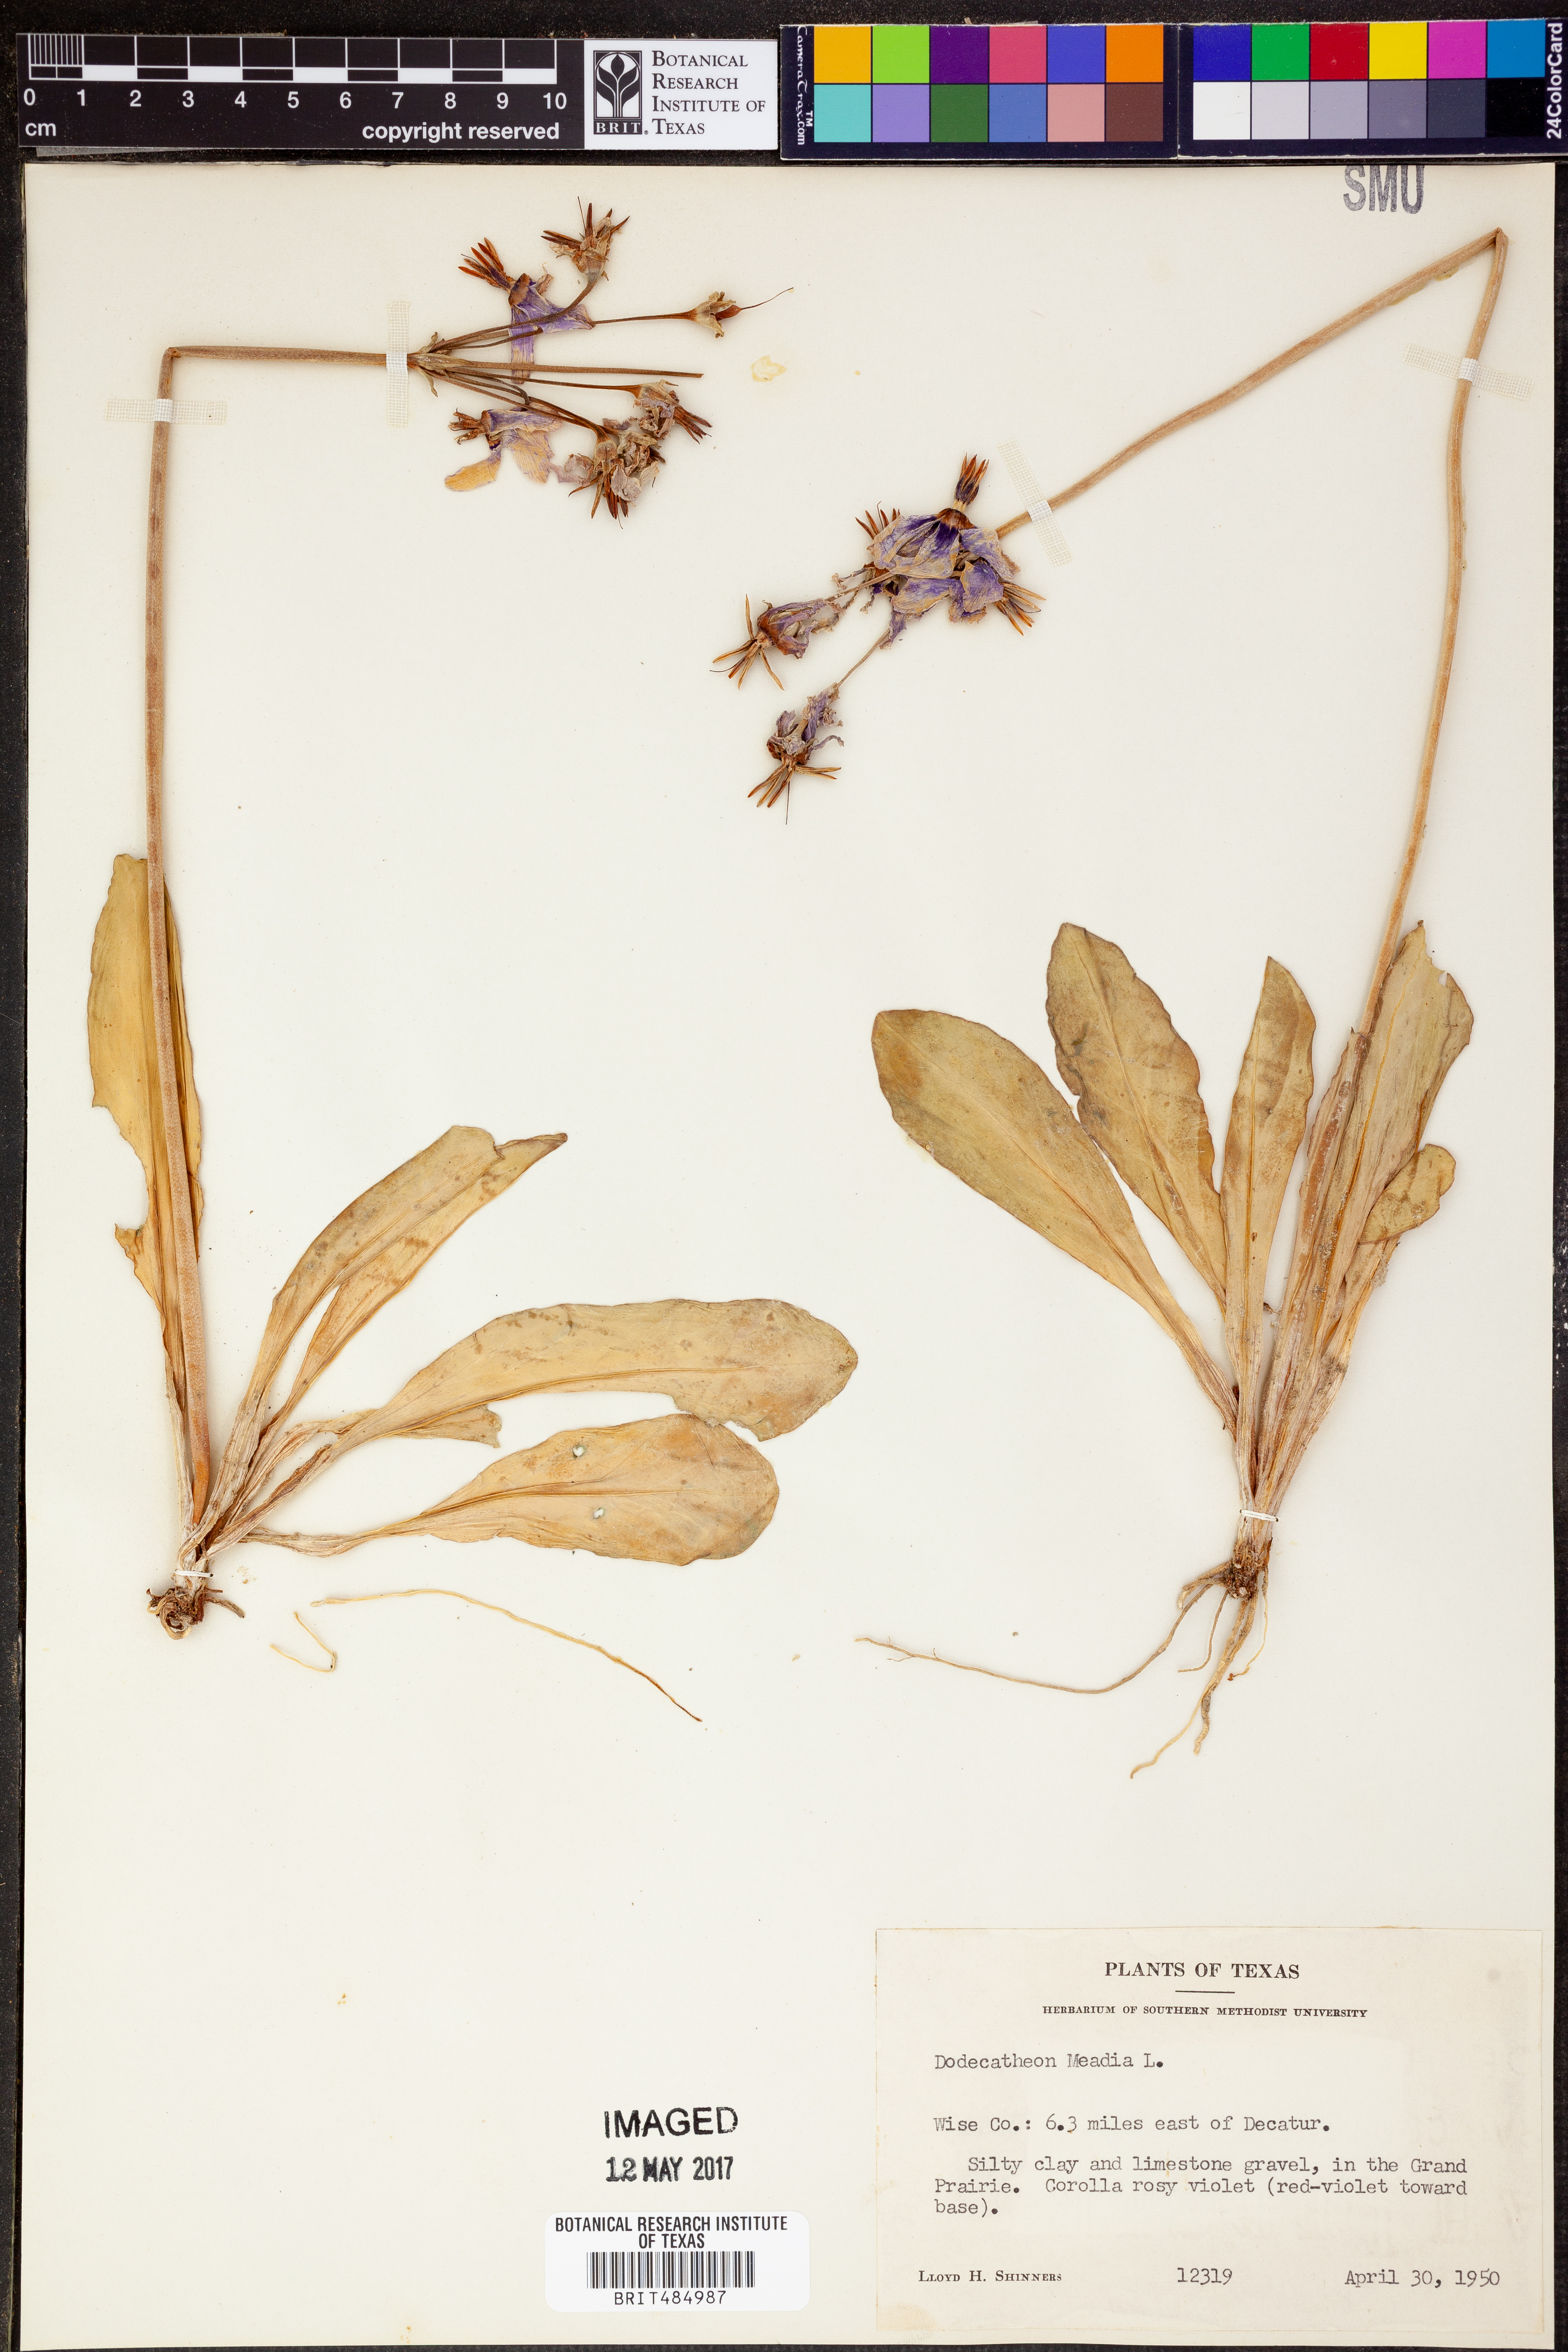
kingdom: Plantae
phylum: Tracheophyta
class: Magnoliopsida
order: Ericales
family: Primulaceae
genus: Dodecatheon
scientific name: Dodecatheon meadia
